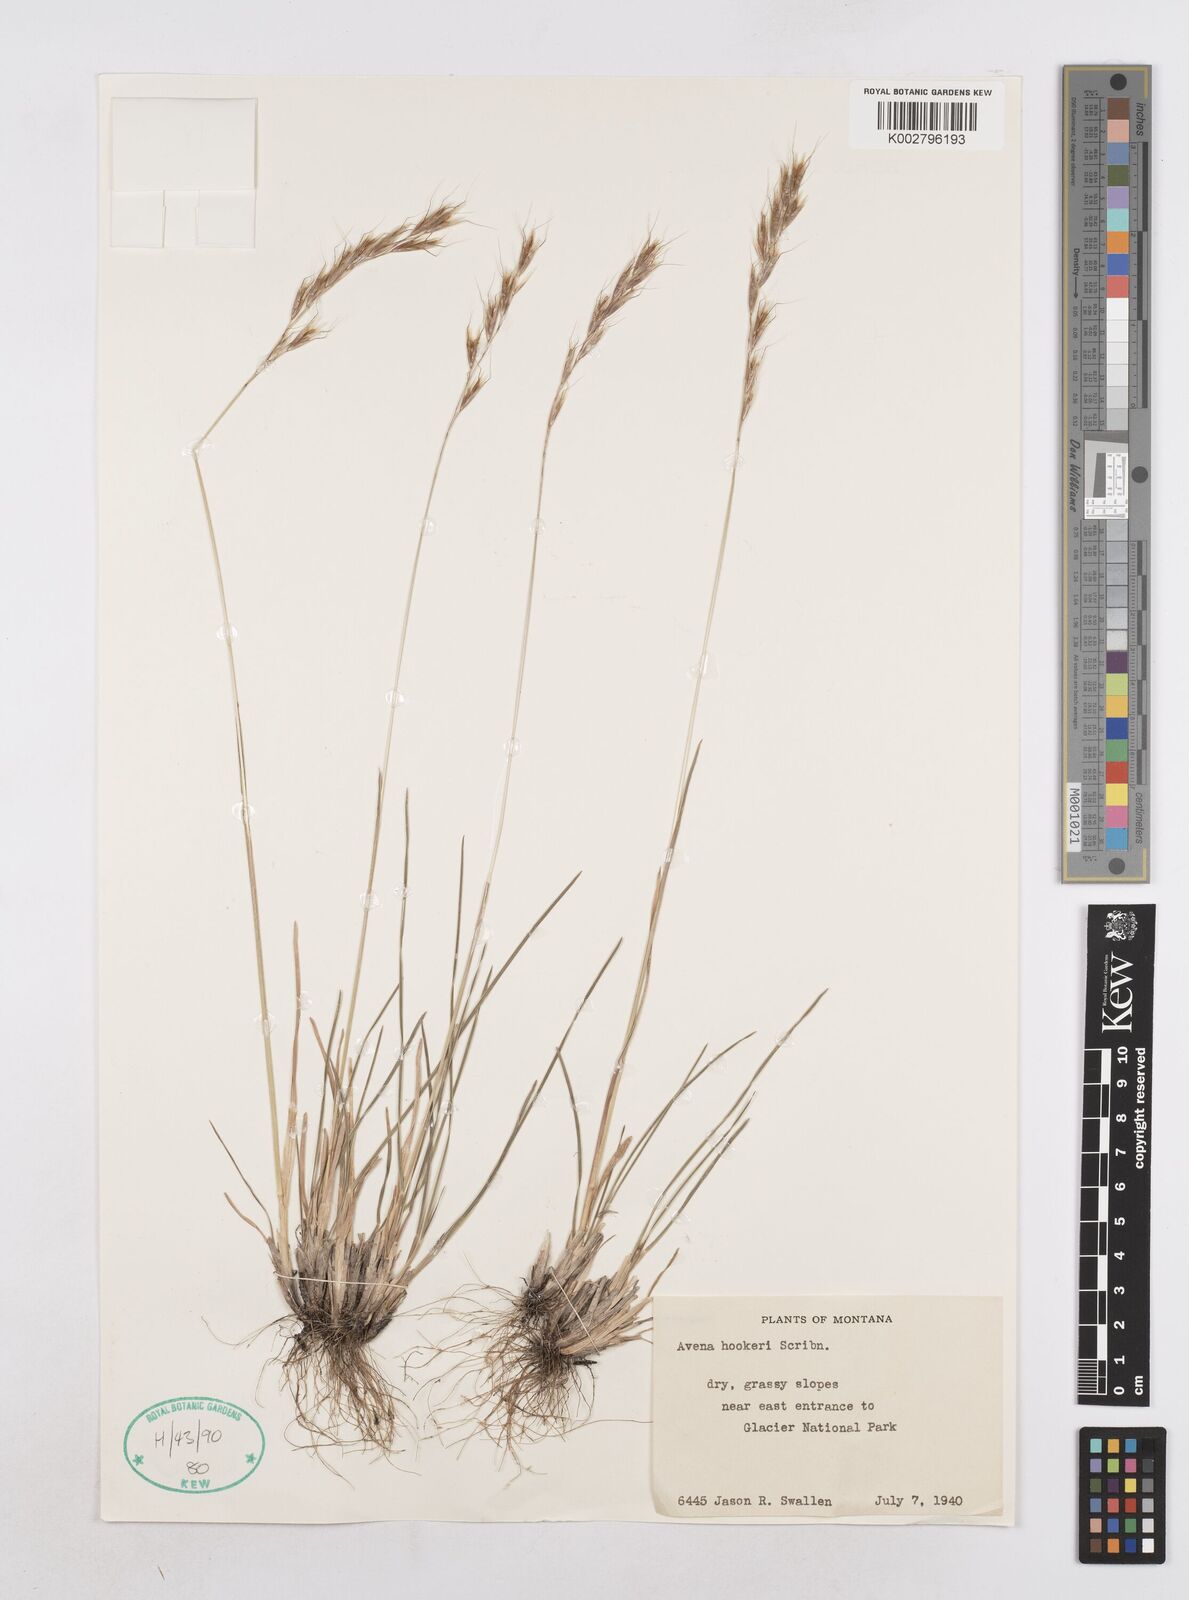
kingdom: Plantae
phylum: Tracheophyta
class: Liliopsida
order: Poales
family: Poaceae
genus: Helictochloa
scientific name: Helictochloa hookeri
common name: Hooker's alpine oatgrass
